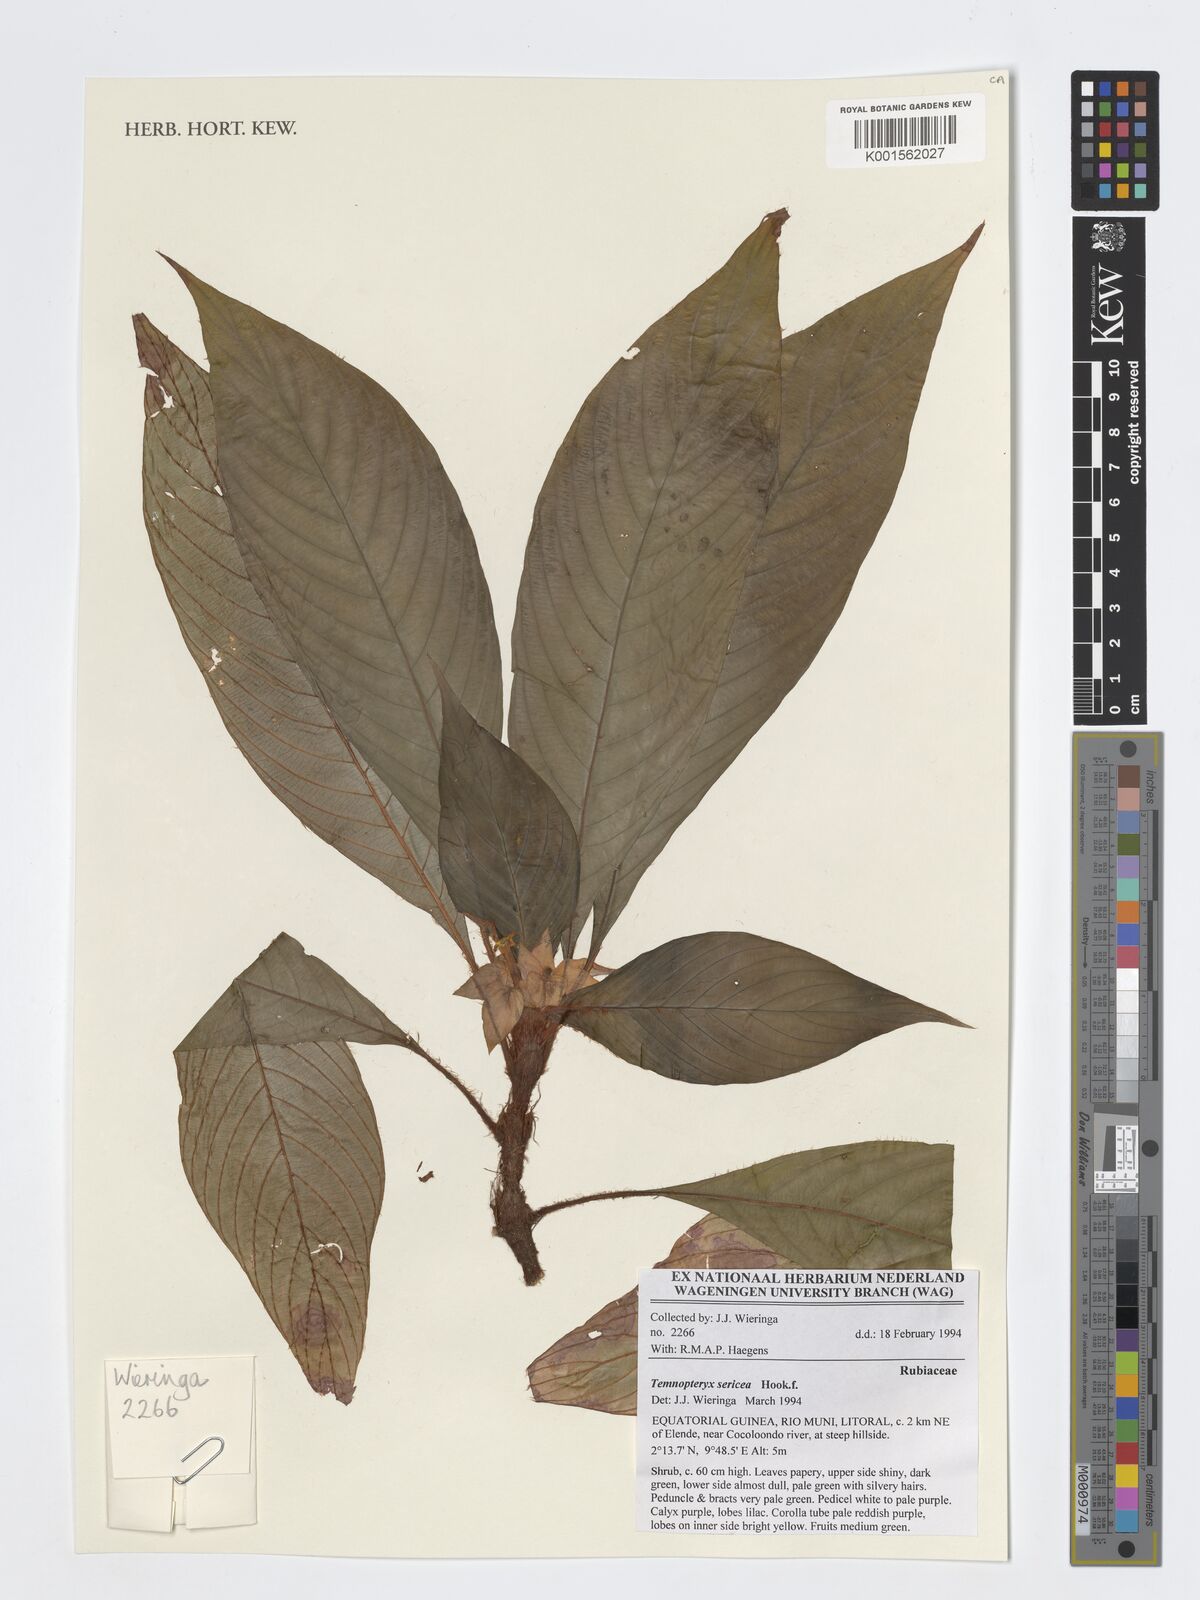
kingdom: Plantae
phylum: Tracheophyta
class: Magnoliopsida
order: Gentianales
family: Rubiaceae
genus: Temnopteryx
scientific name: Temnopteryx sericea
